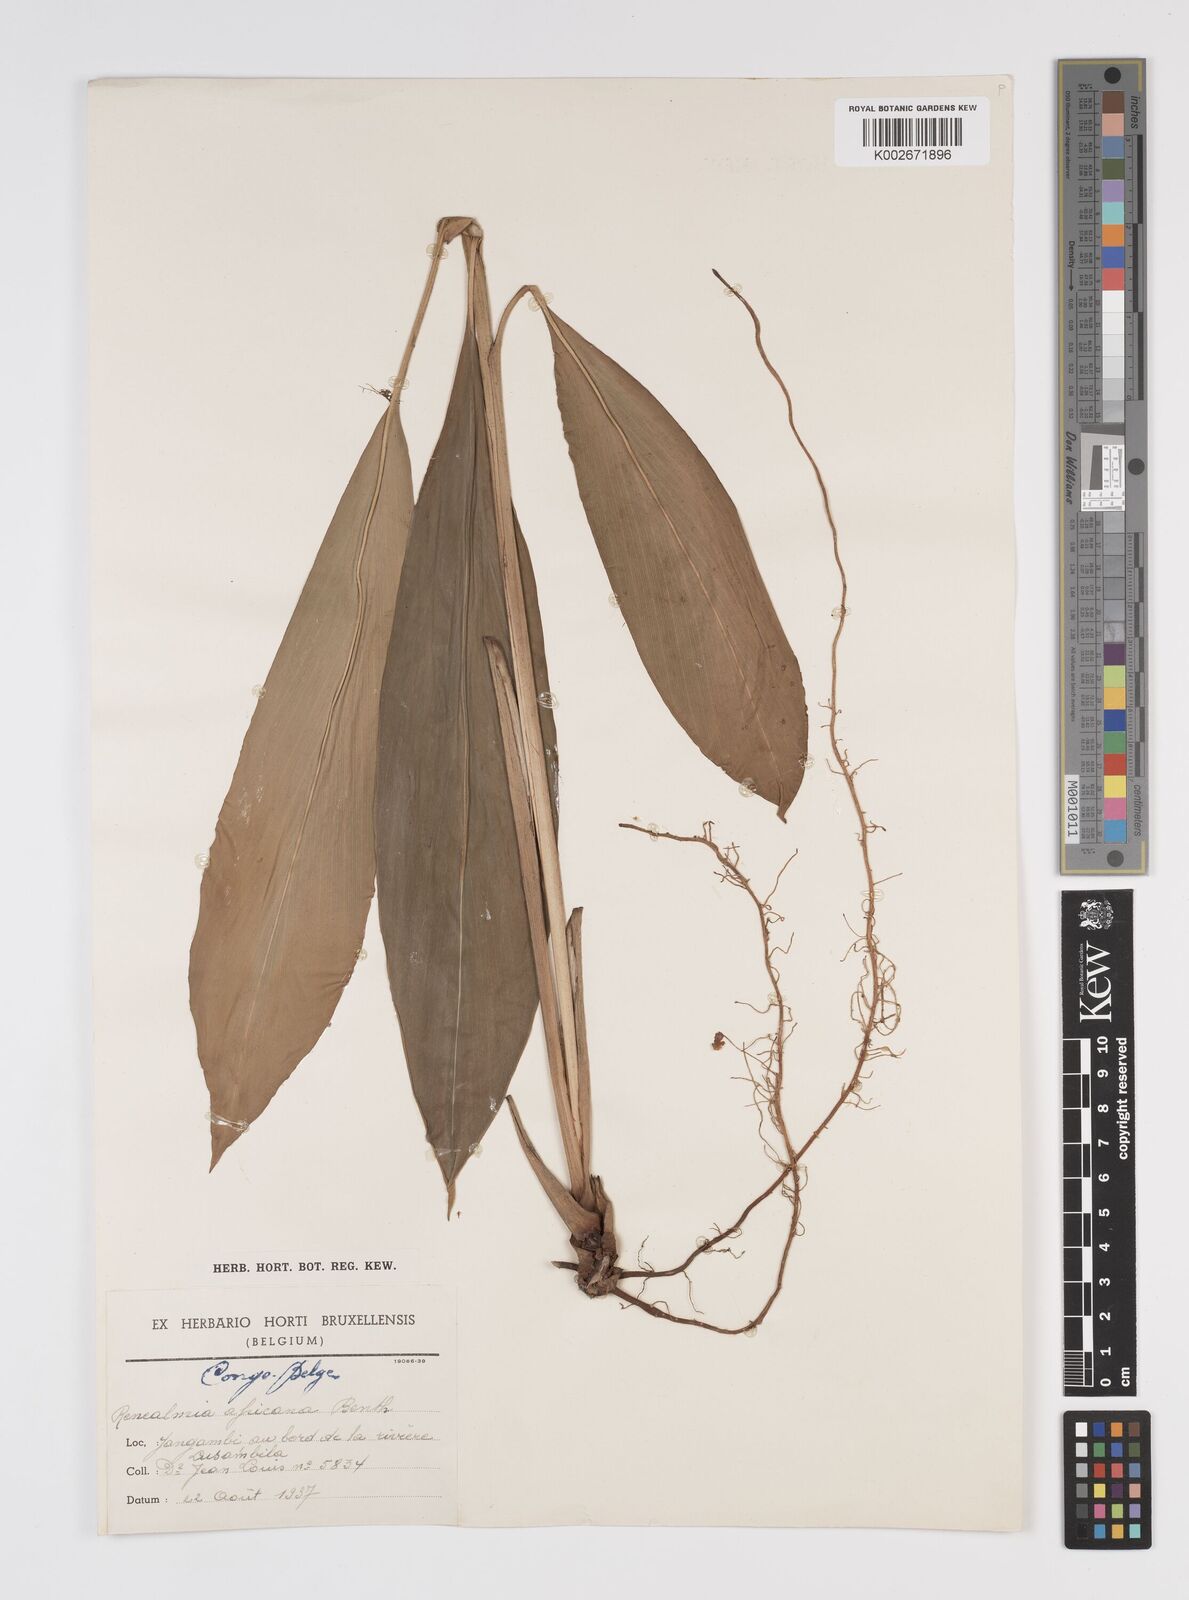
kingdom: Plantae
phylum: Tracheophyta
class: Liliopsida
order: Zingiberales
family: Zingiberaceae
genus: Renealmia
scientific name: Renealmia africana
